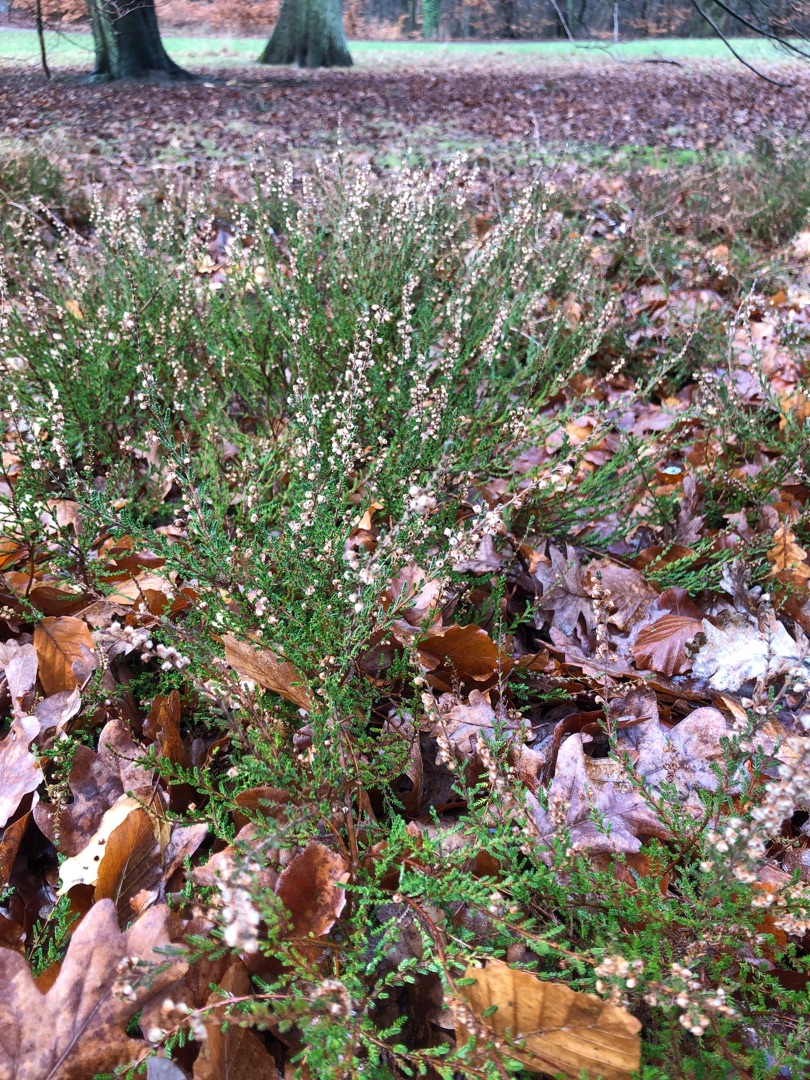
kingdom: Plantae
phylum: Tracheophyta
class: Magnoliopsida
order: Ericales
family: Ericaceae
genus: Calluna
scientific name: Calluna vulgaris
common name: Hedelyng
